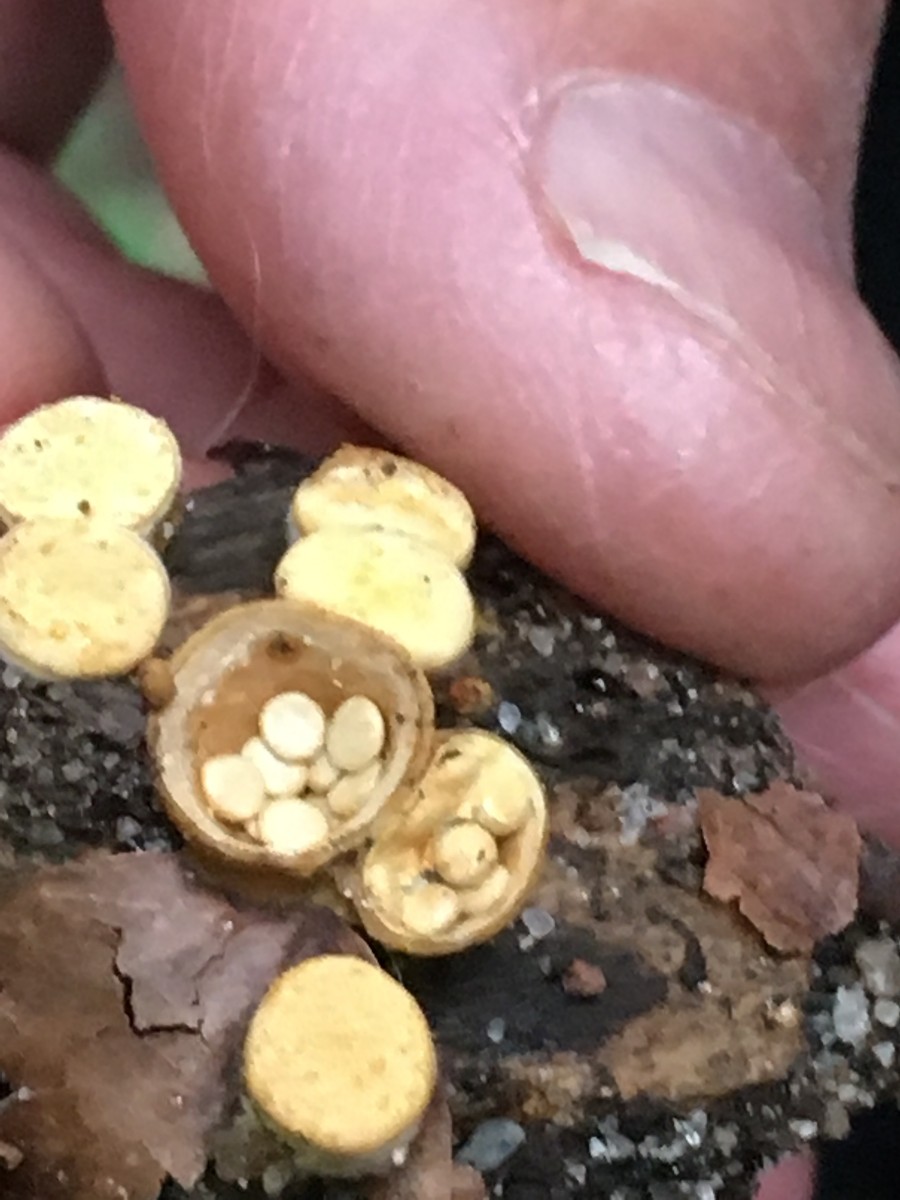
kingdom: Fungi
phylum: Basidiomycota
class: Agaricomycetes
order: Agaricales
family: Nidulariaceae
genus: Crucibulum
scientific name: Crucibulum crucibuliforme
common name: krukkesvamp
